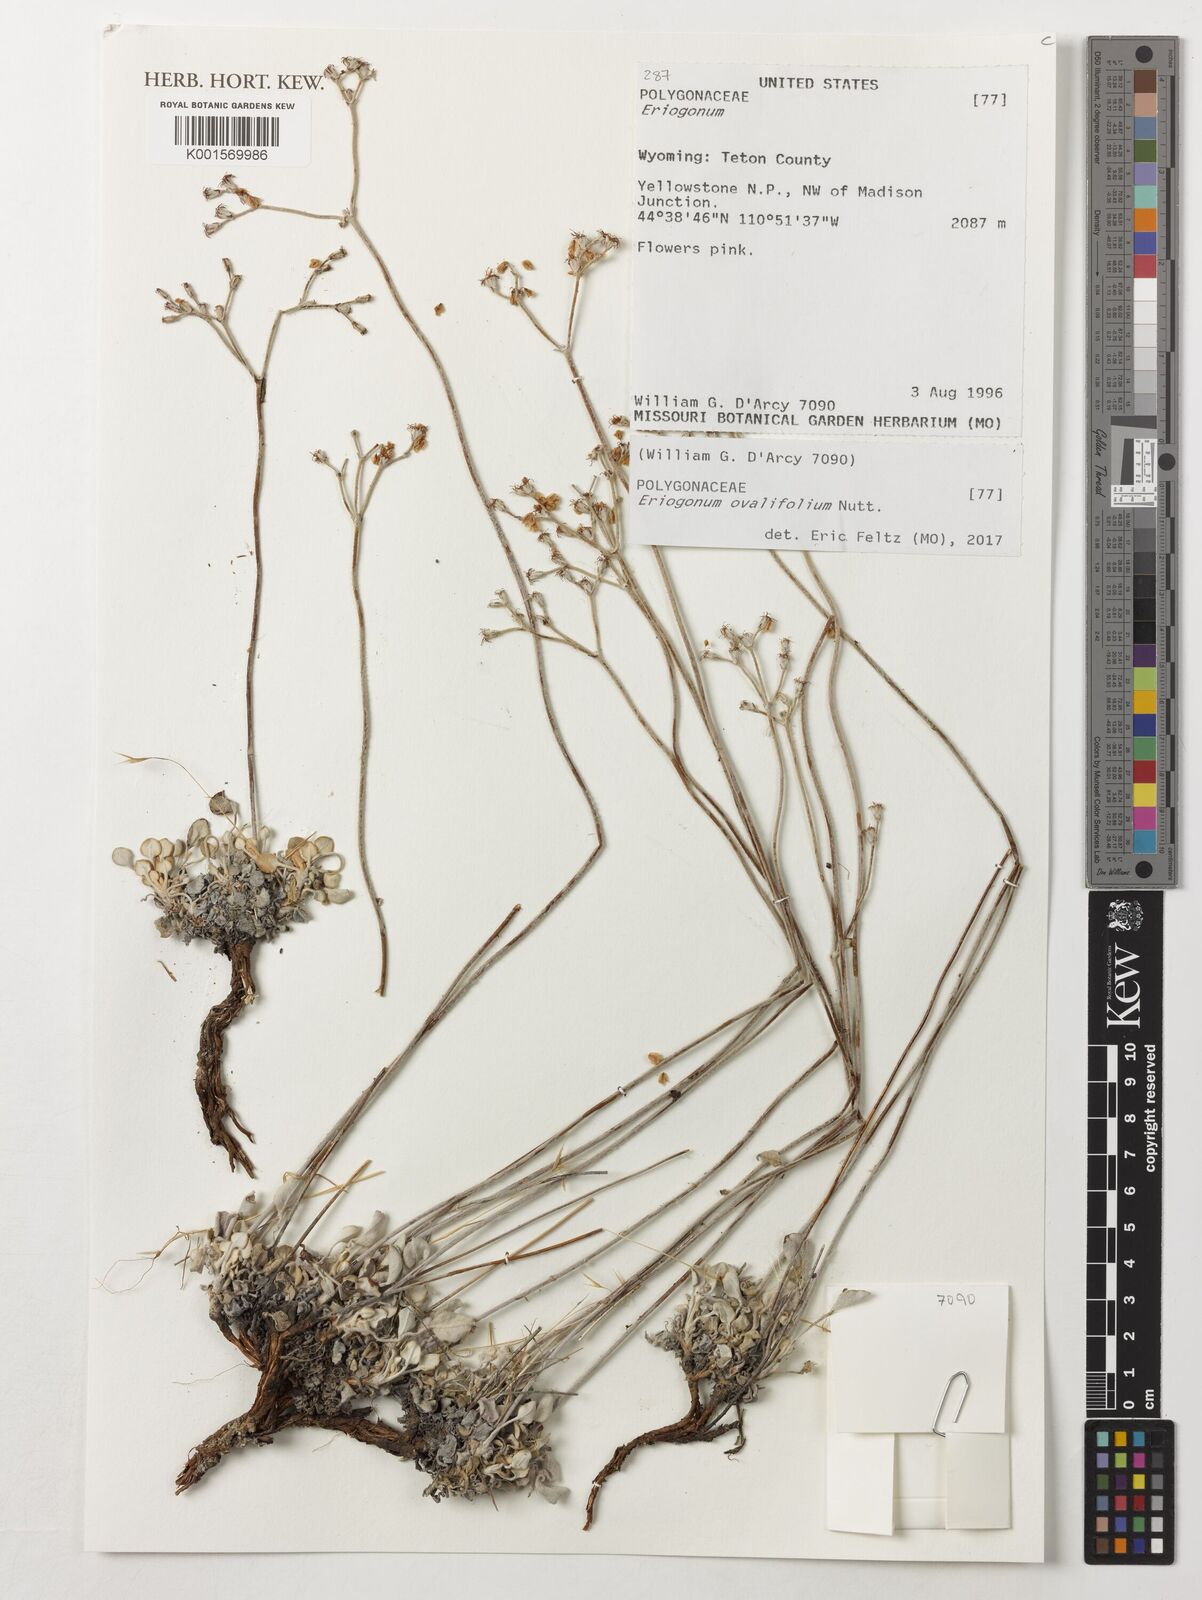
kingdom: Plantae
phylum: Tracheophyta
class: Magnoliopsida
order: Caryophyllales
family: Polygonaceae
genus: Eriogonum
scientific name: Eriogonum ovalifolium
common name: Cushion buckwheat
